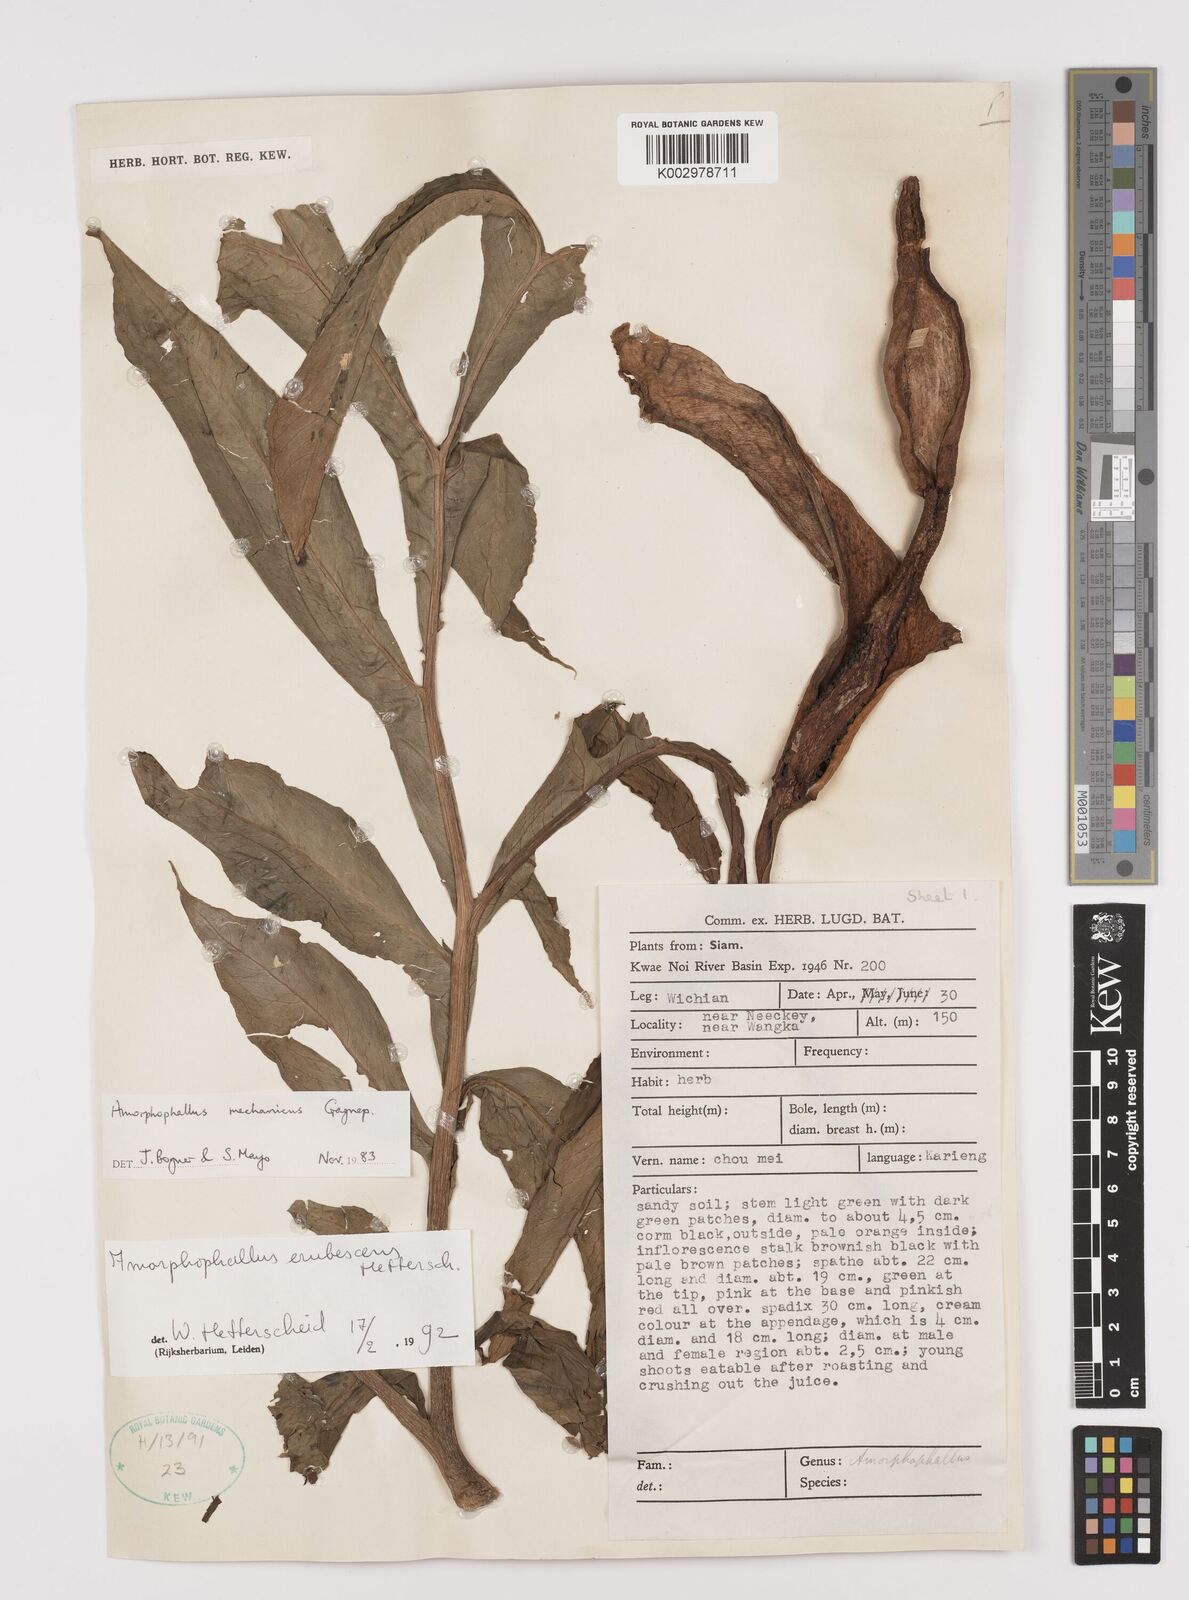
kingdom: Plantae
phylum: Tracheophyta
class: Liliopsida
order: Alismatales
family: Araceae
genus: Amorphophallus
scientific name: Amorphophallus muelleri
